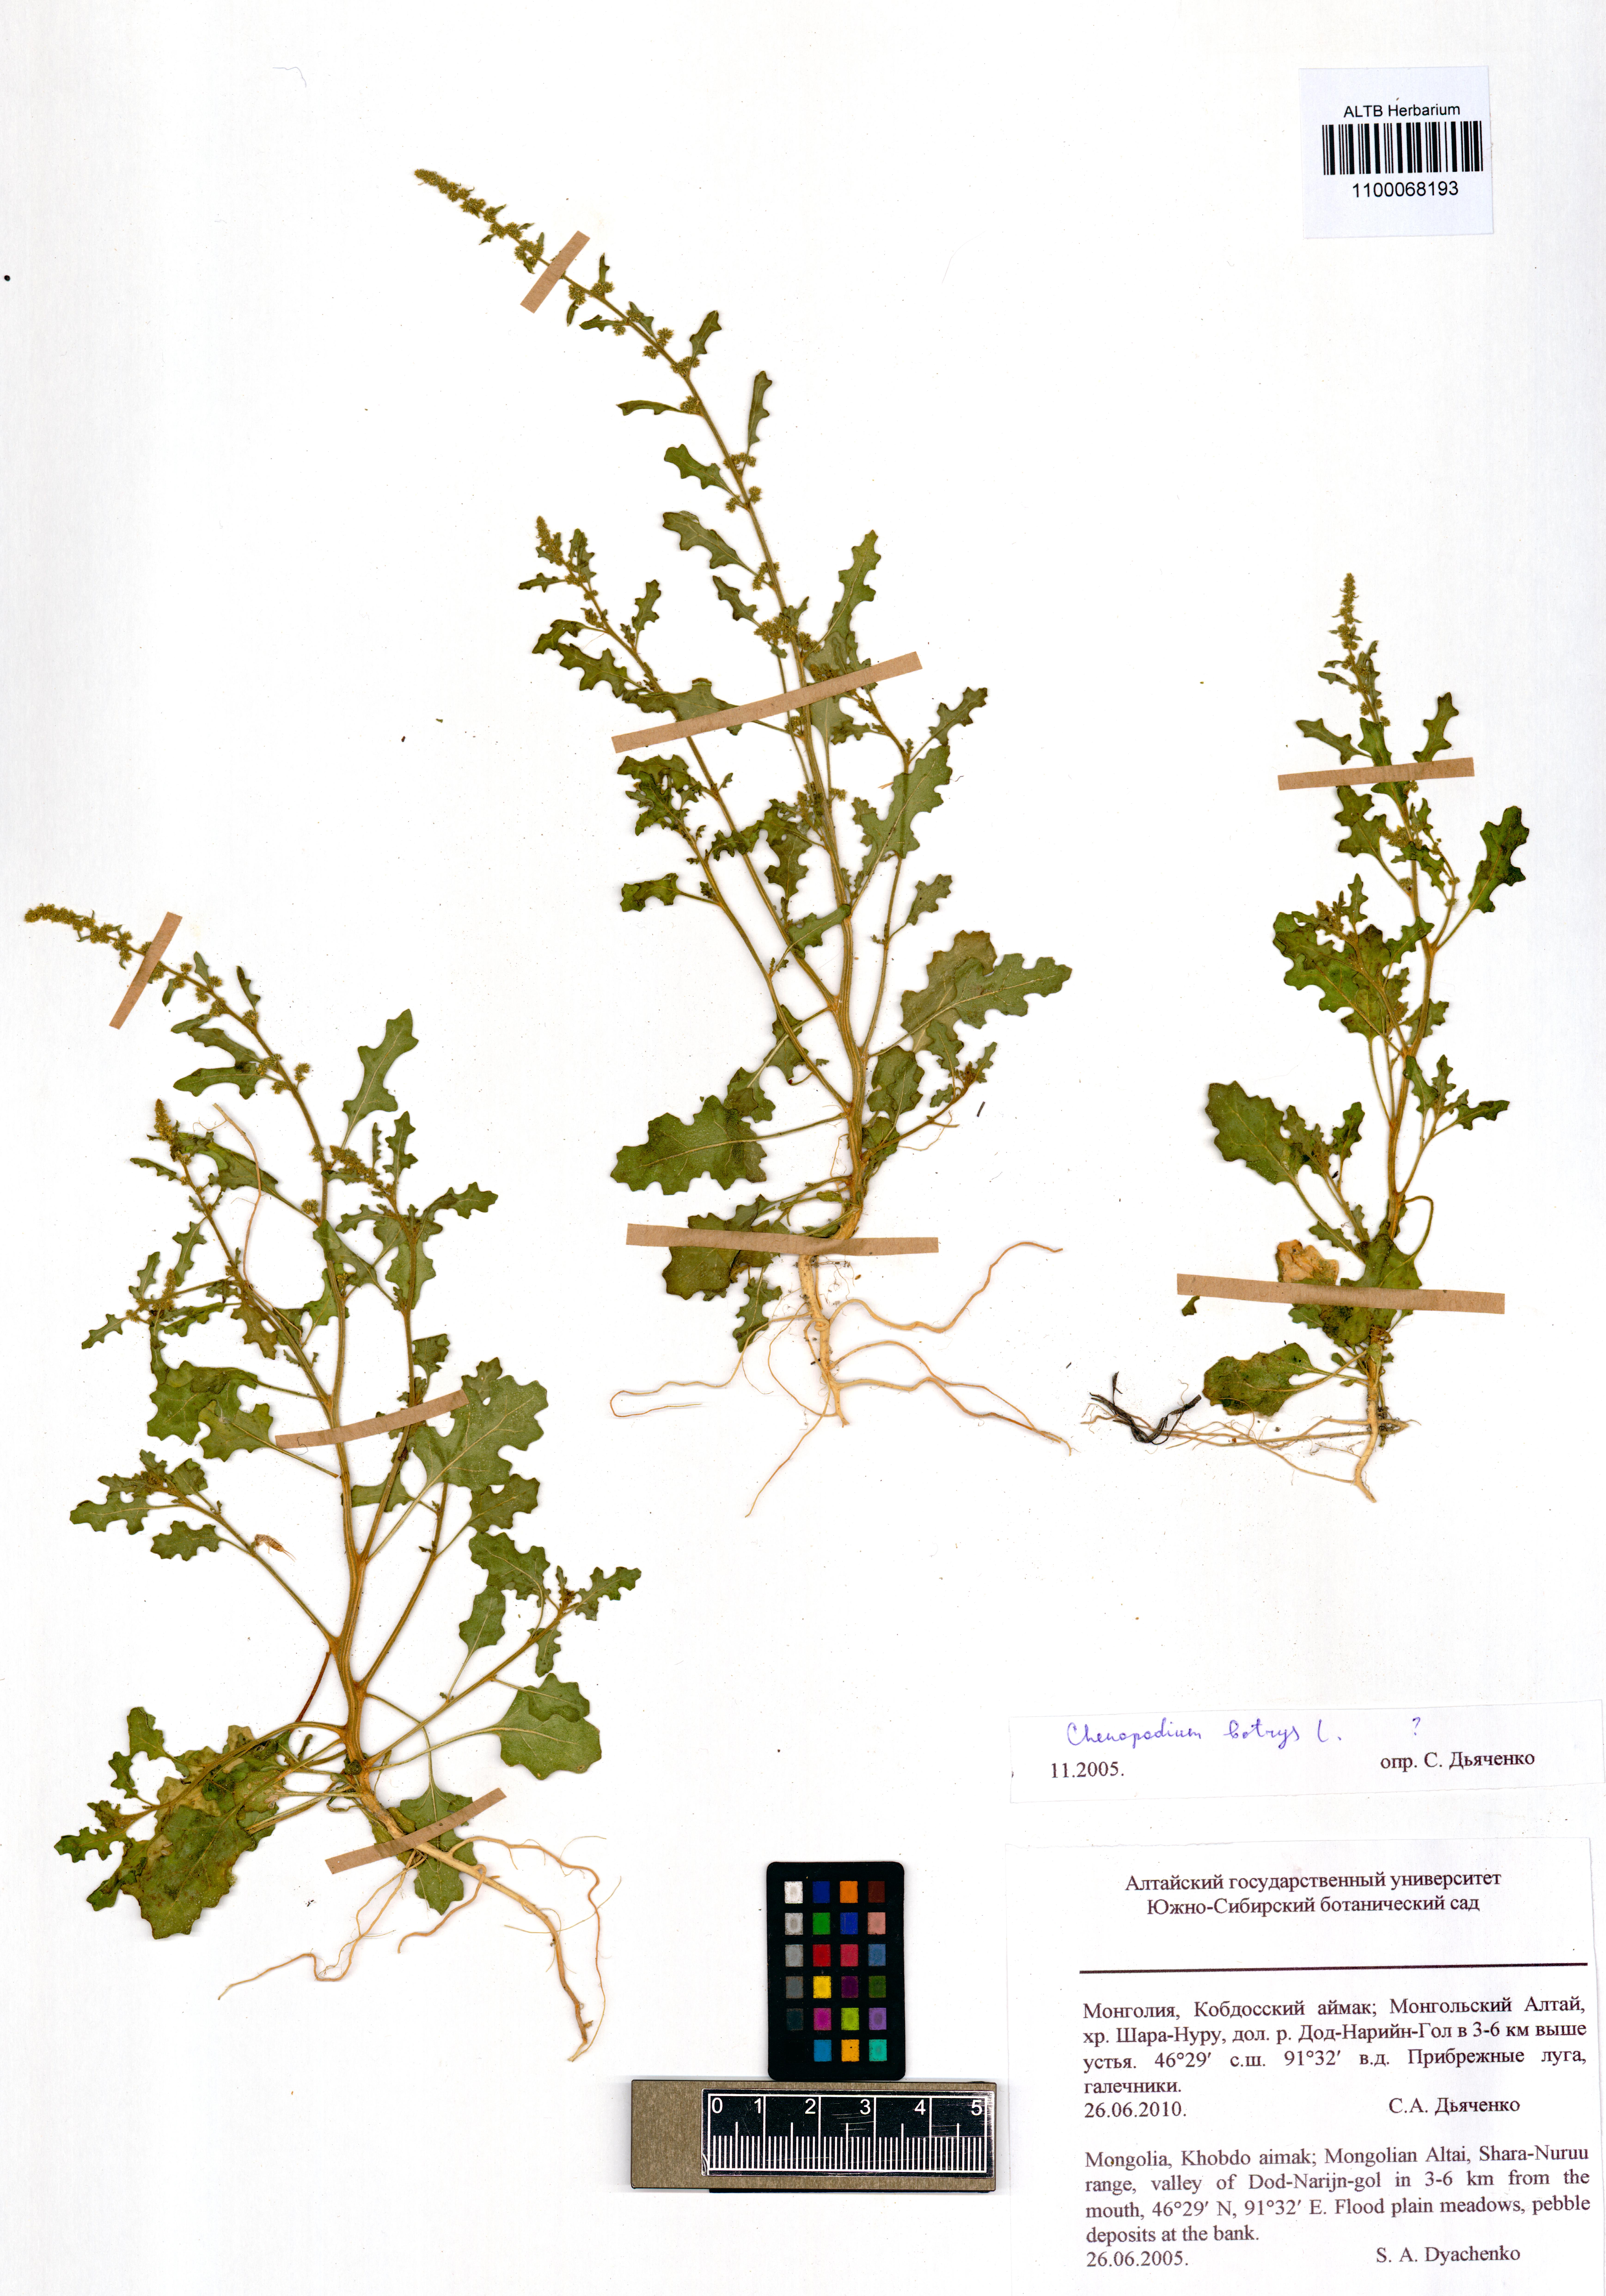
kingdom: Plantae
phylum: Tracheophyta
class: Magnoliopsida
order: Caryophyllales
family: Amaranthaceae
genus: Dysphania
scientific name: Dysphania botrys
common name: Feather-geranium
